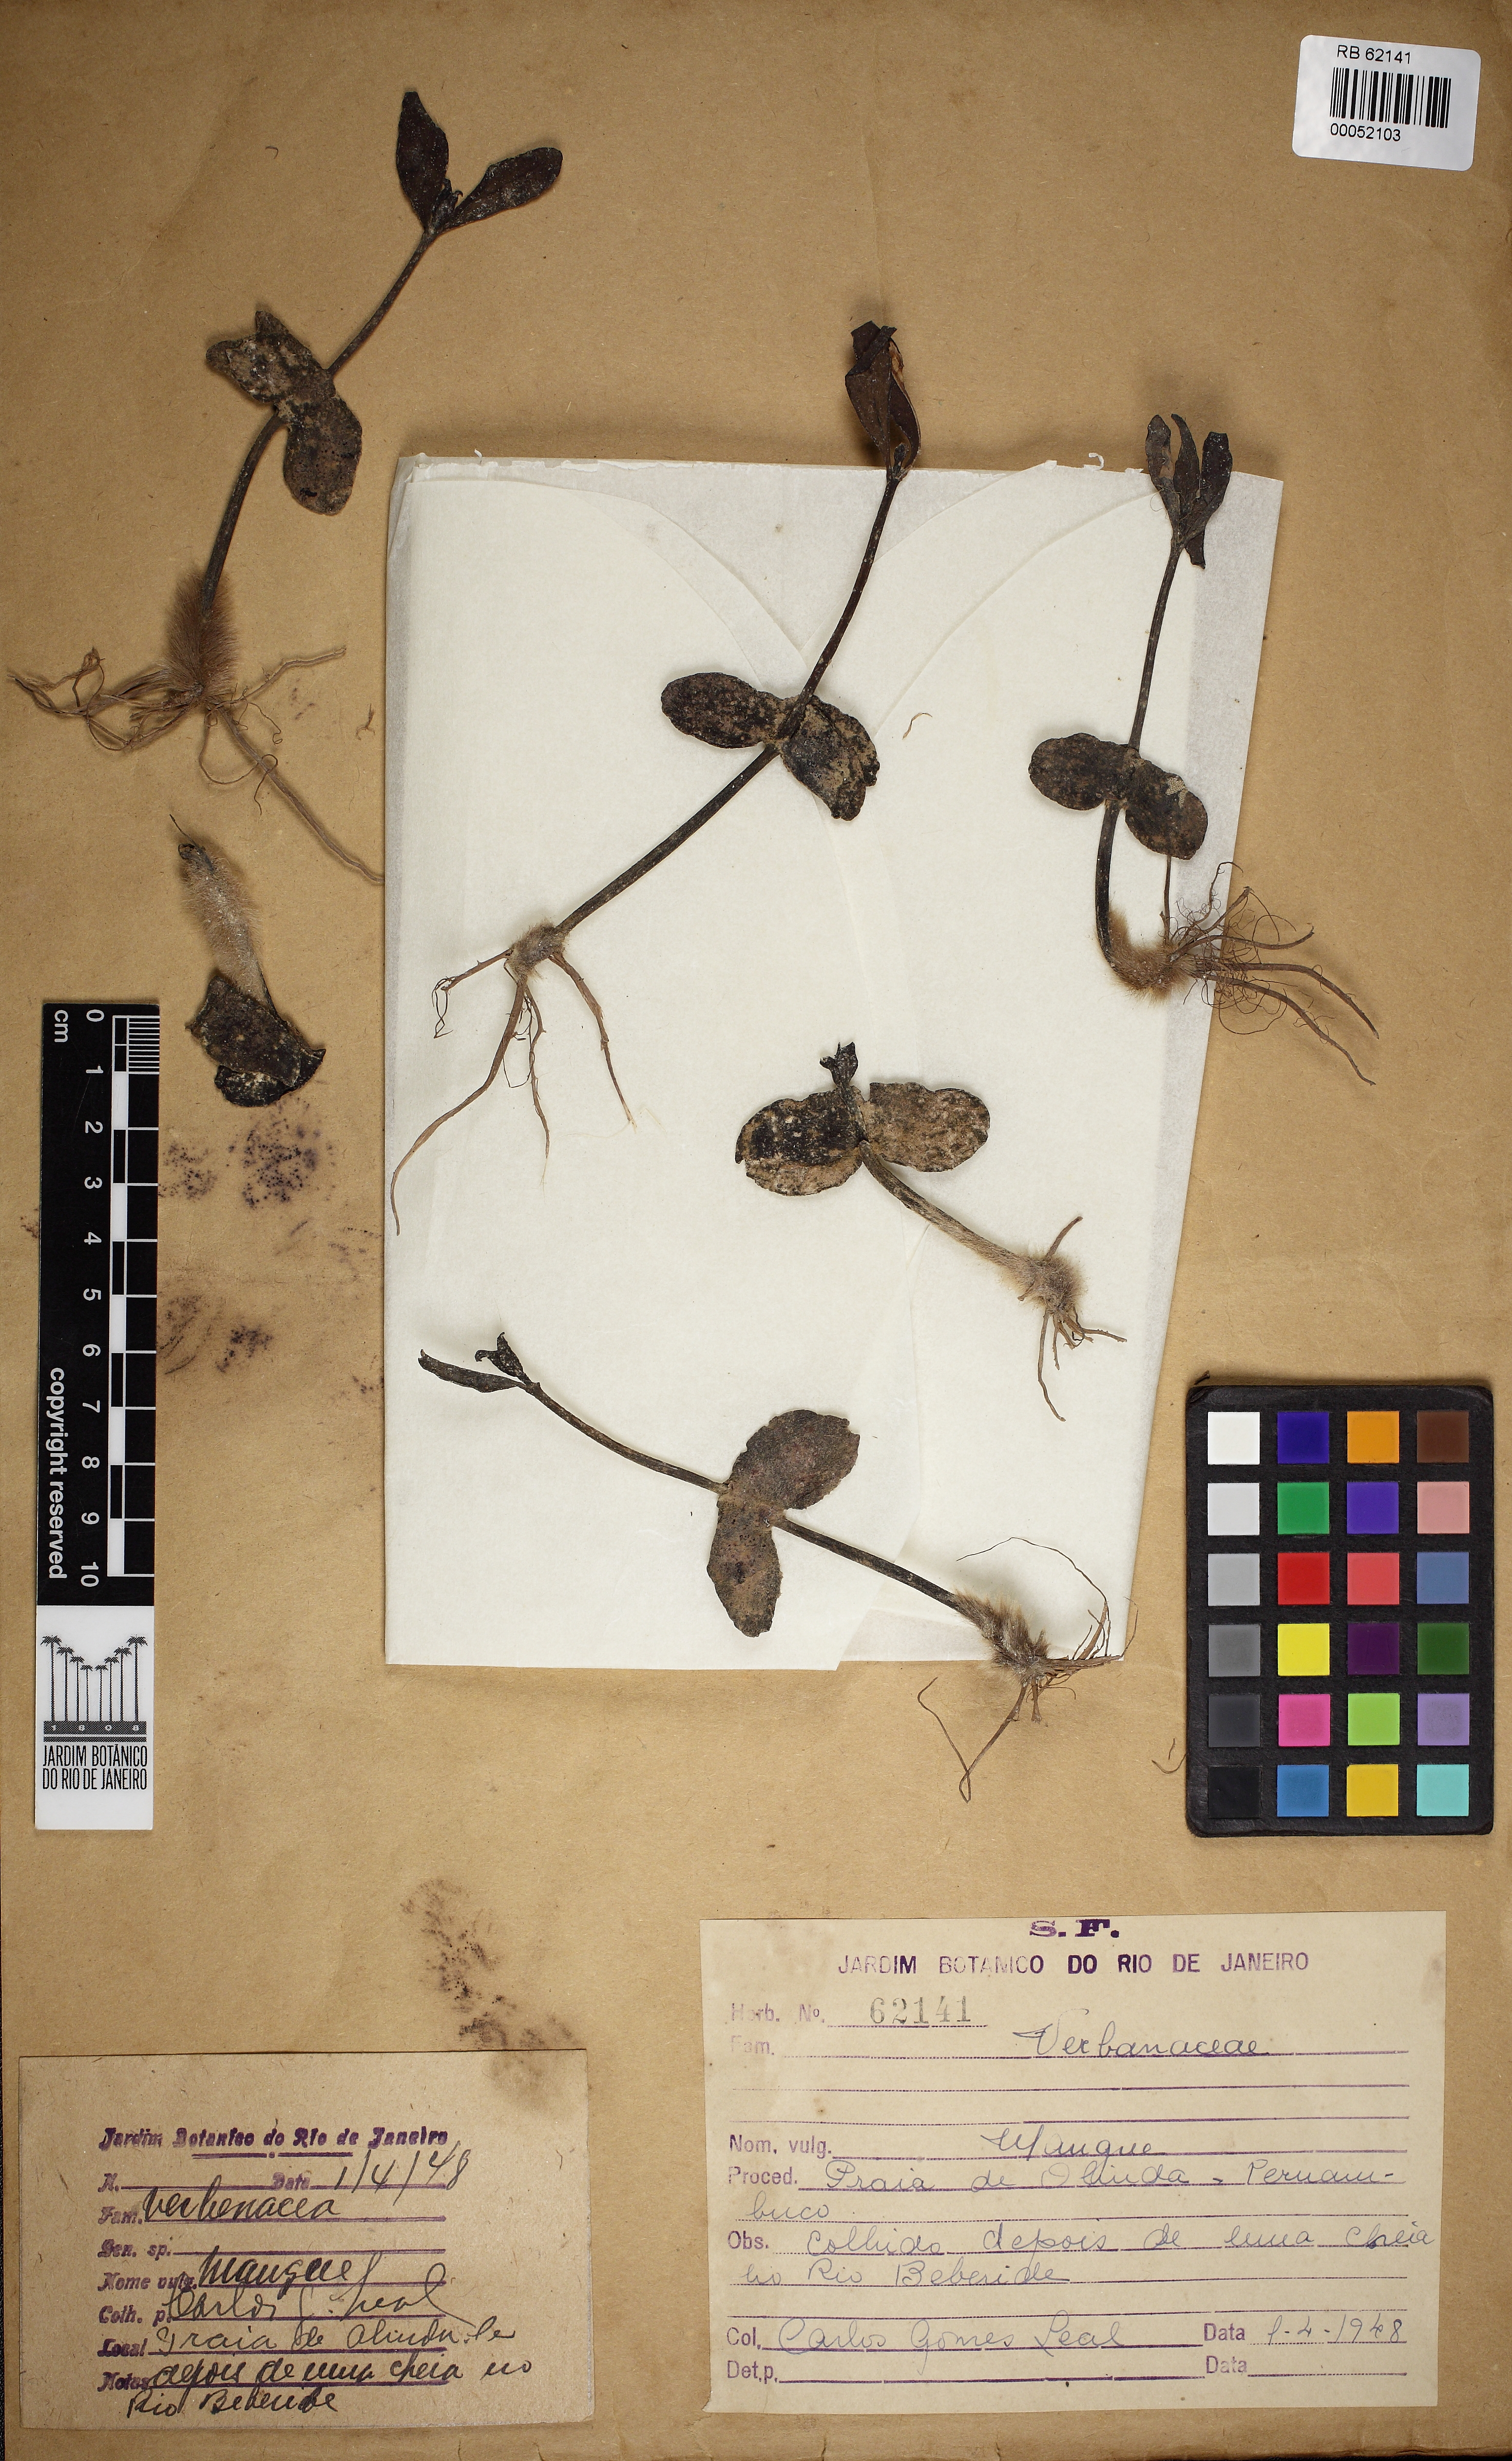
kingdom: Plantae
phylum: Tracheophyta
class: Magnoliopsida
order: Lamiales
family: Acanthaceae
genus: Avicennia
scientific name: Avicennia
